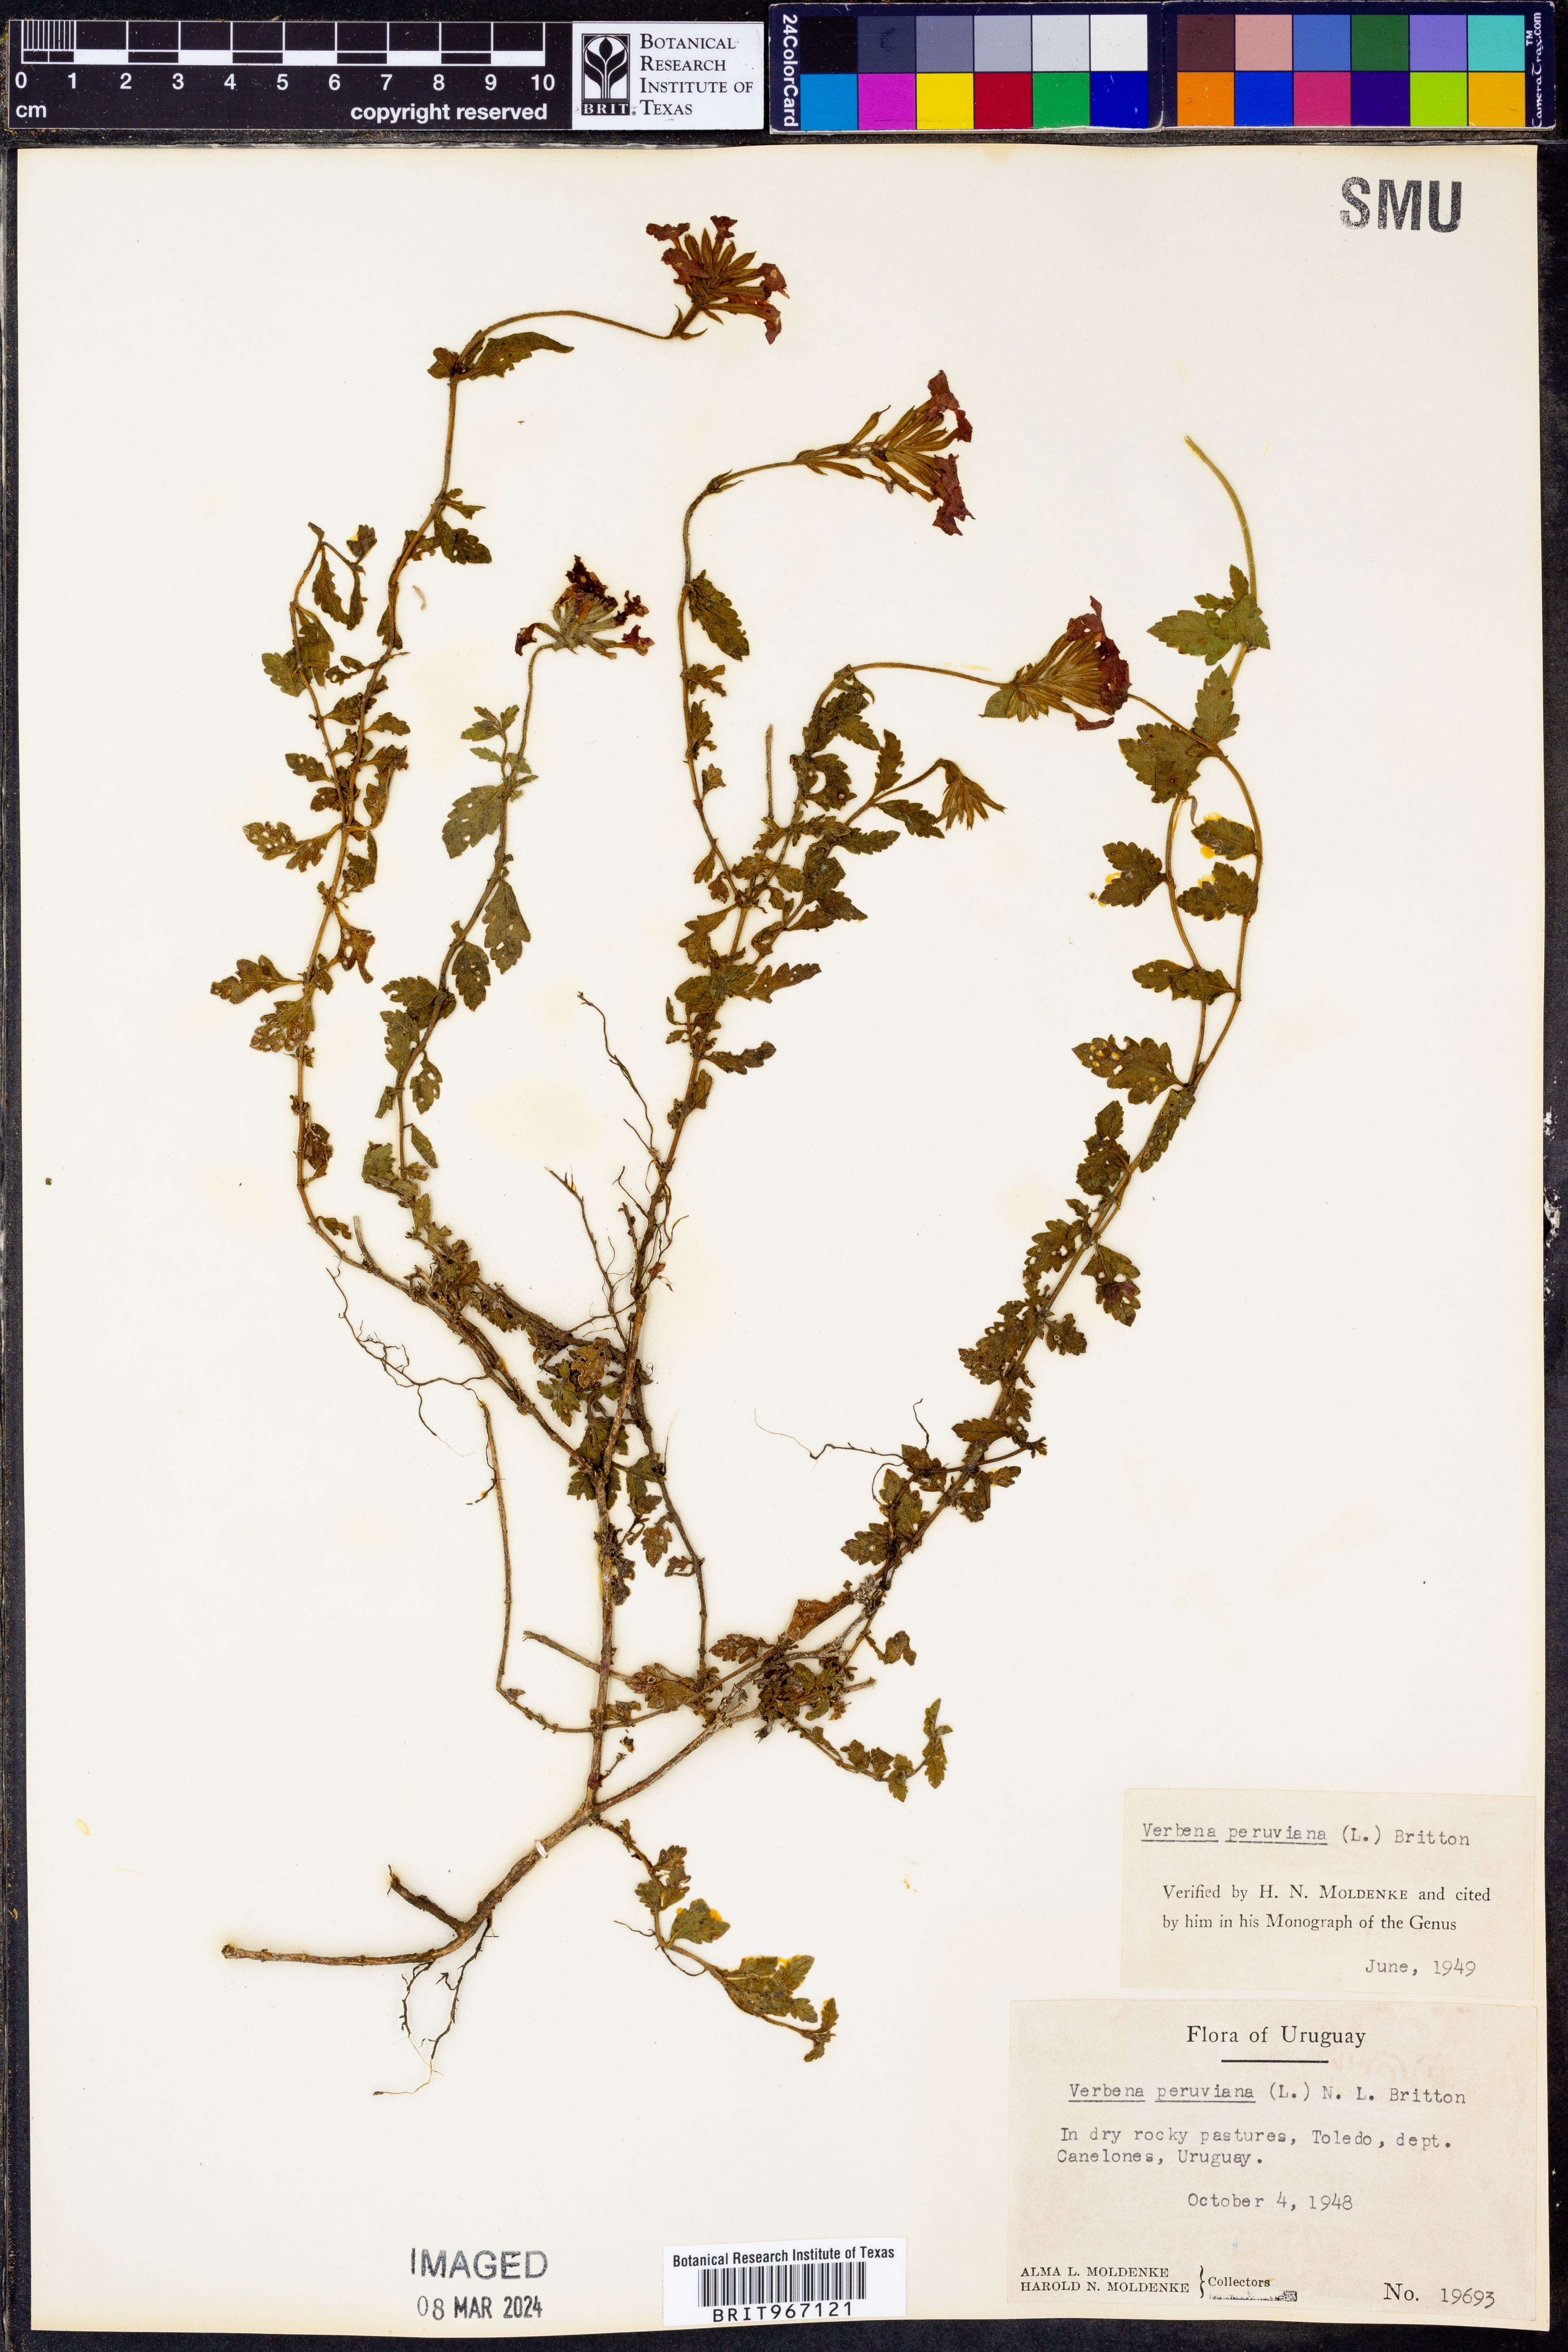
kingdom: Plantae
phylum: Tracheophyta
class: Magnoliopsida
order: Lamiales
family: Verbenaceae
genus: Verbena
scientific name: Verbena
